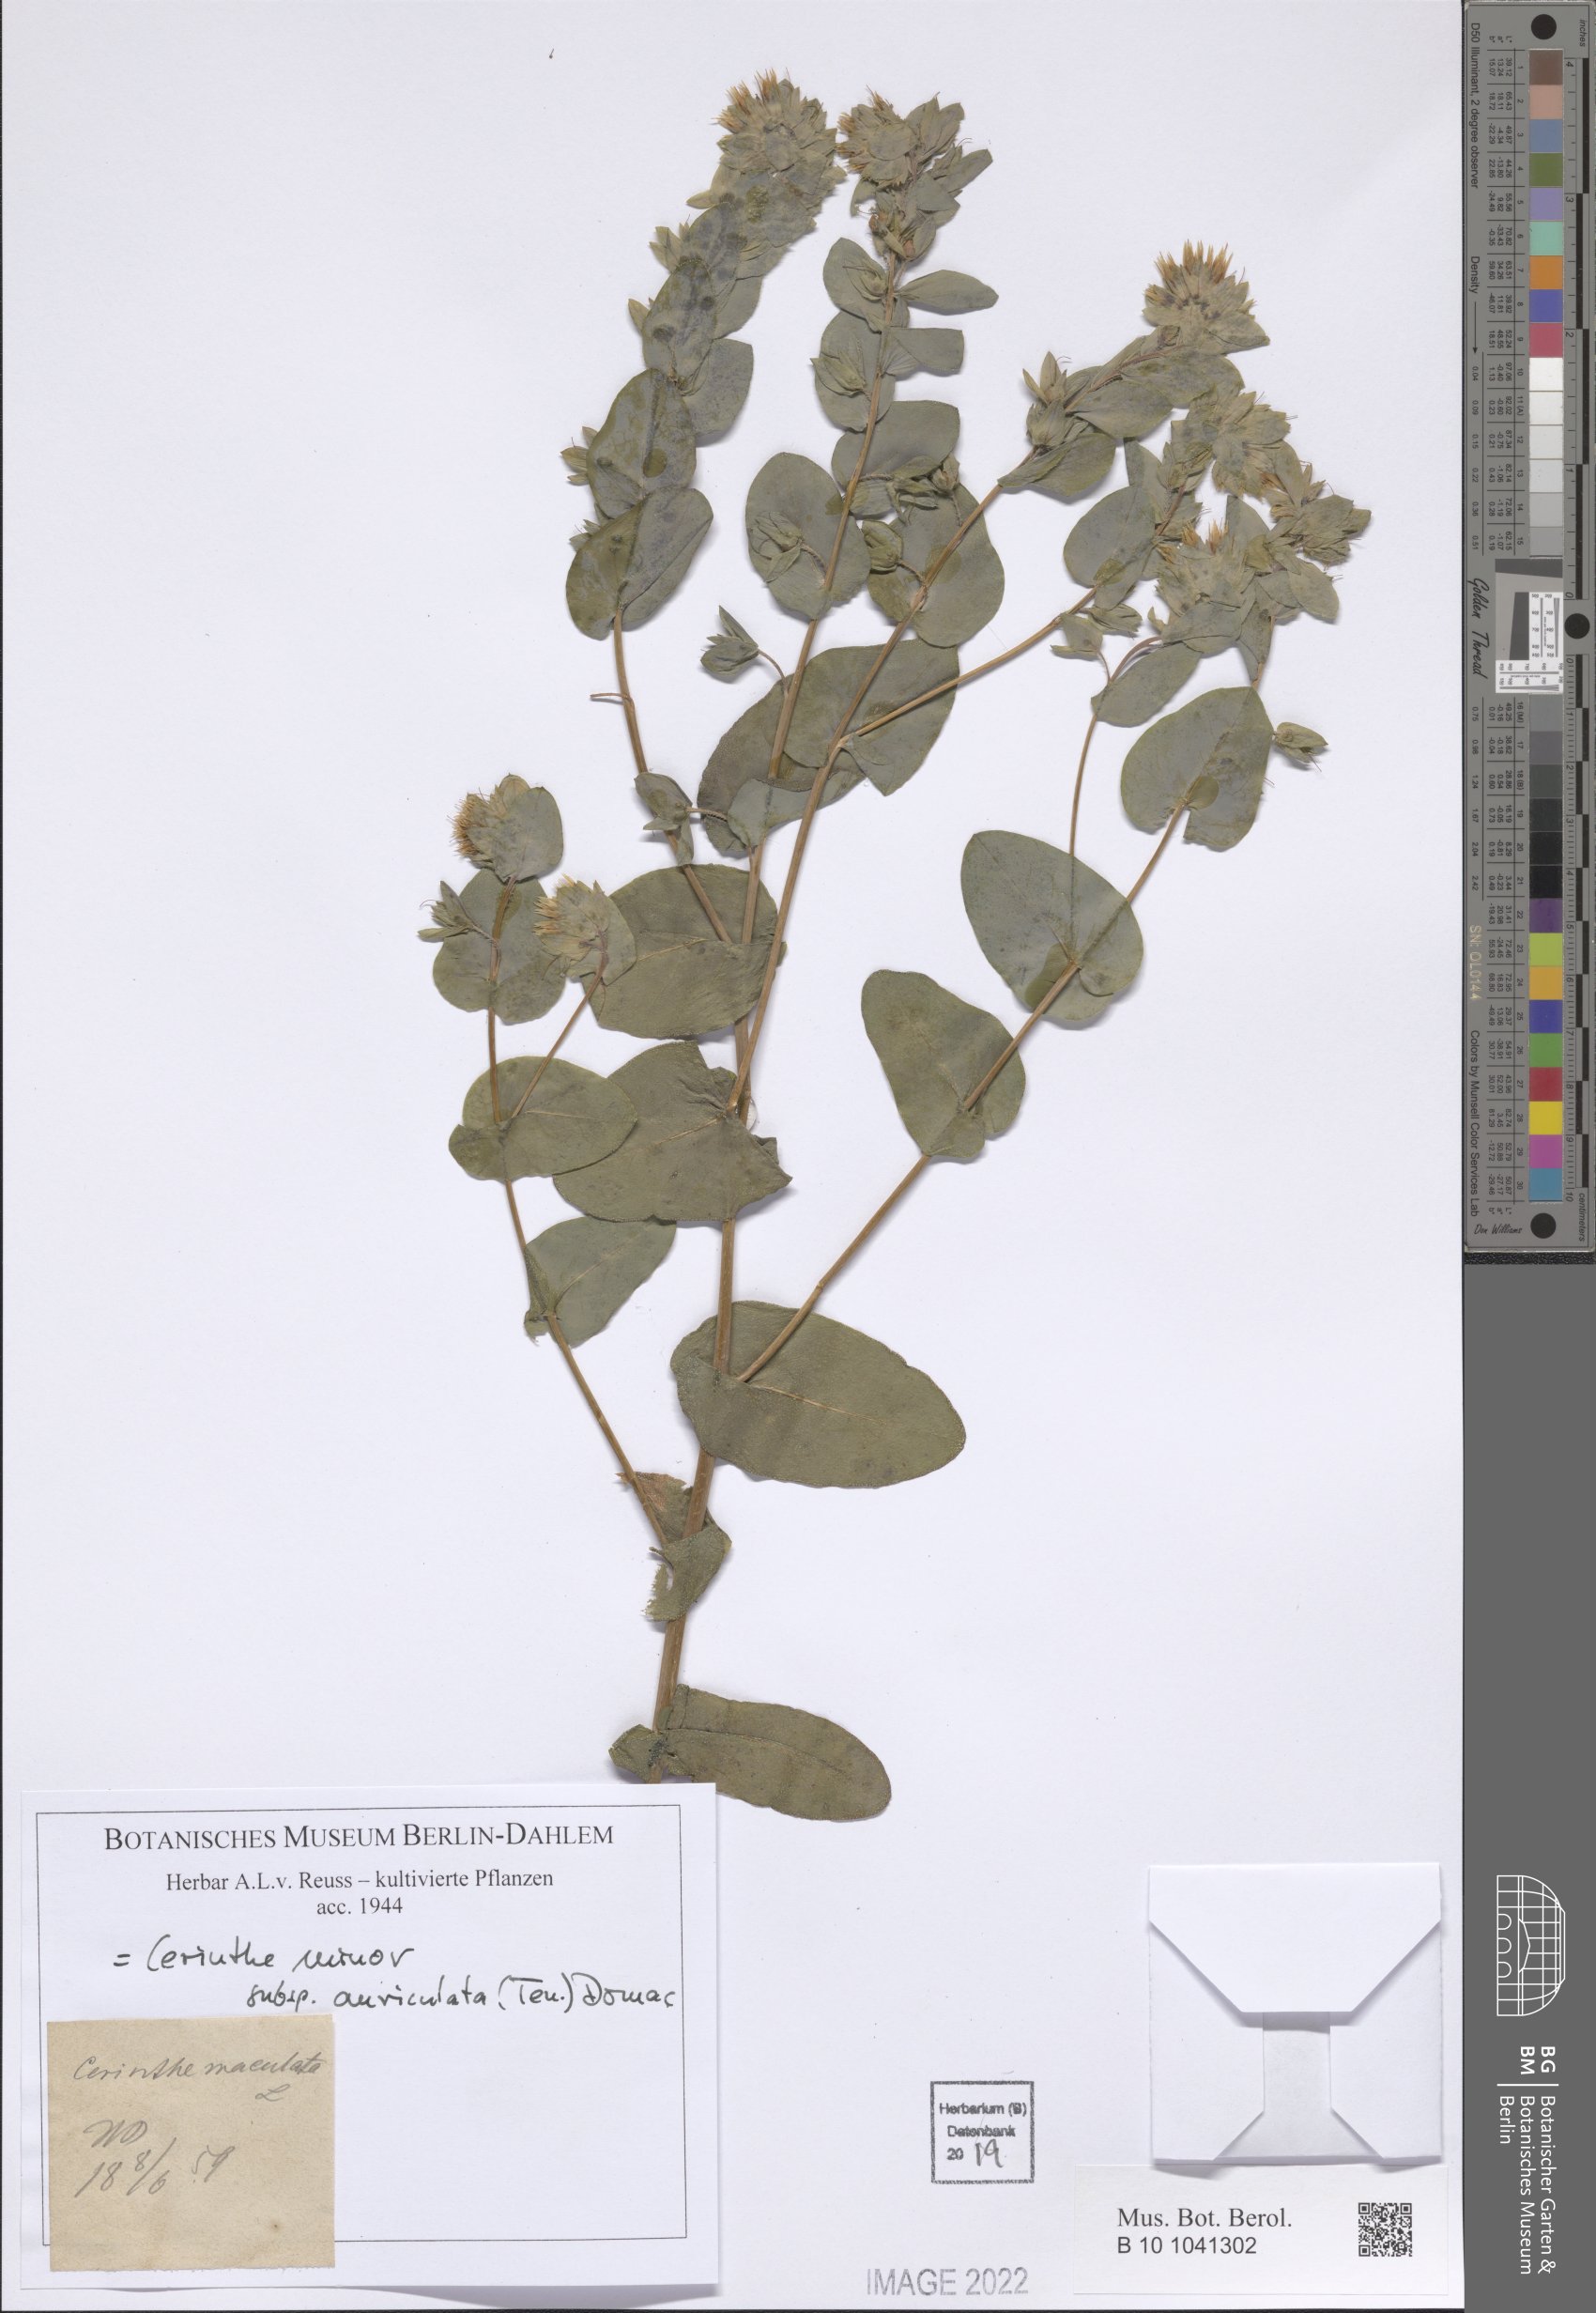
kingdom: Plantae
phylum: Tracheophyta
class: Magnoliopsida
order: Boraginales
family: Boraginaceae
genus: Cerinthe
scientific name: Cerinthe minor
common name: Lesser honeywort
